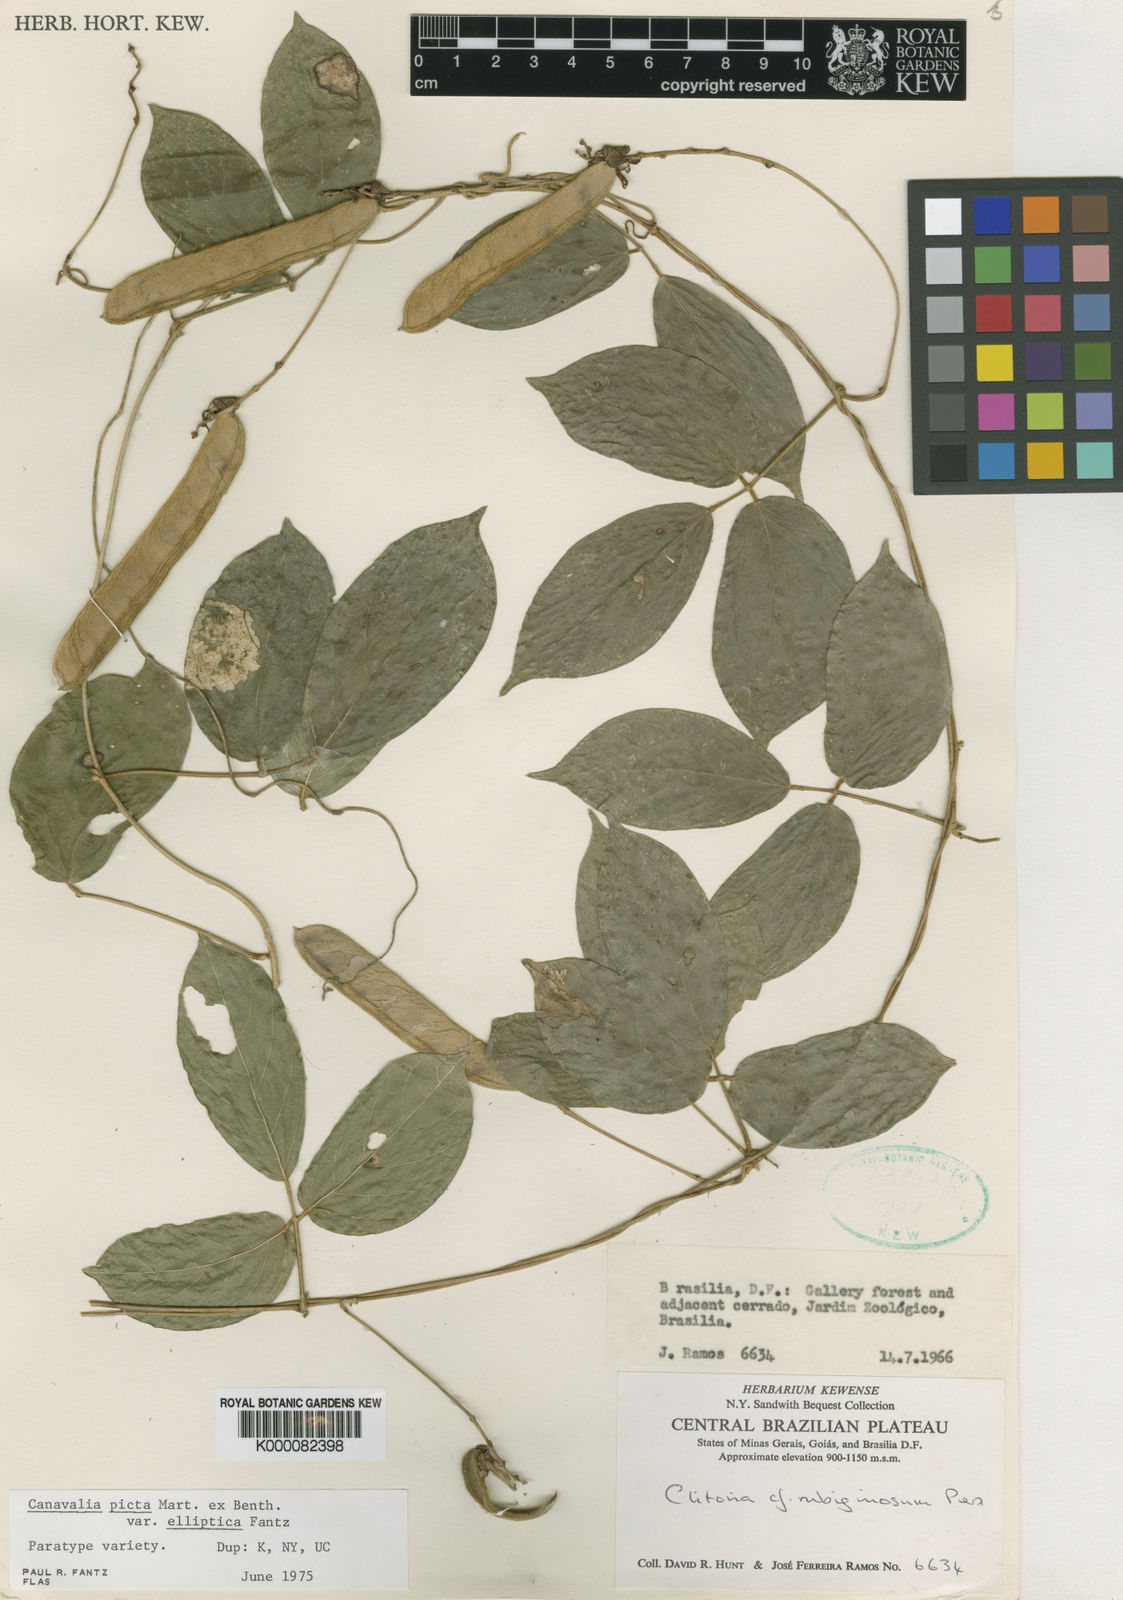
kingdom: Plantae
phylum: Tracheophyta
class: Magnoliopsida
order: Fabales
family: Fabaceae
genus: Canavalia
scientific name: Canavalia picta
